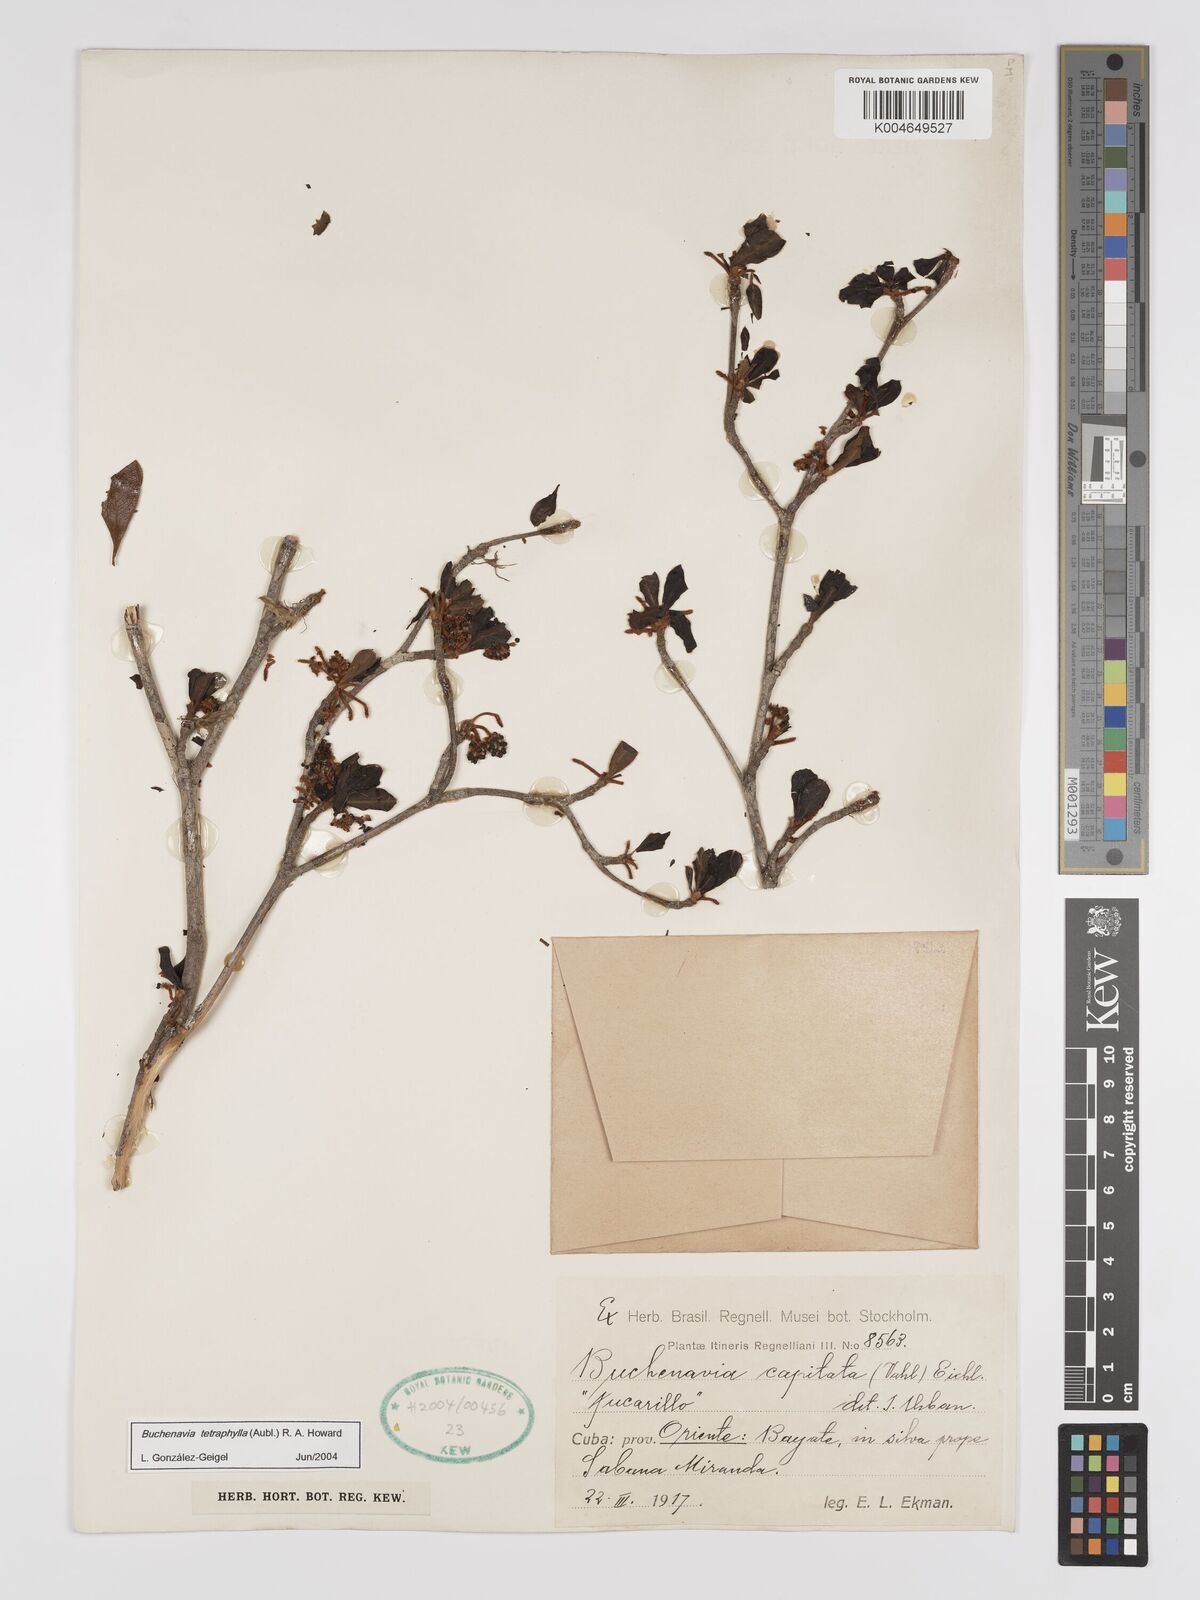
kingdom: Plantae
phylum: Tracheophyta
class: Magnoliopsida
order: Myrtales
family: Combretaceae
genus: Terminalia
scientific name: Terminalia tetraphylla
